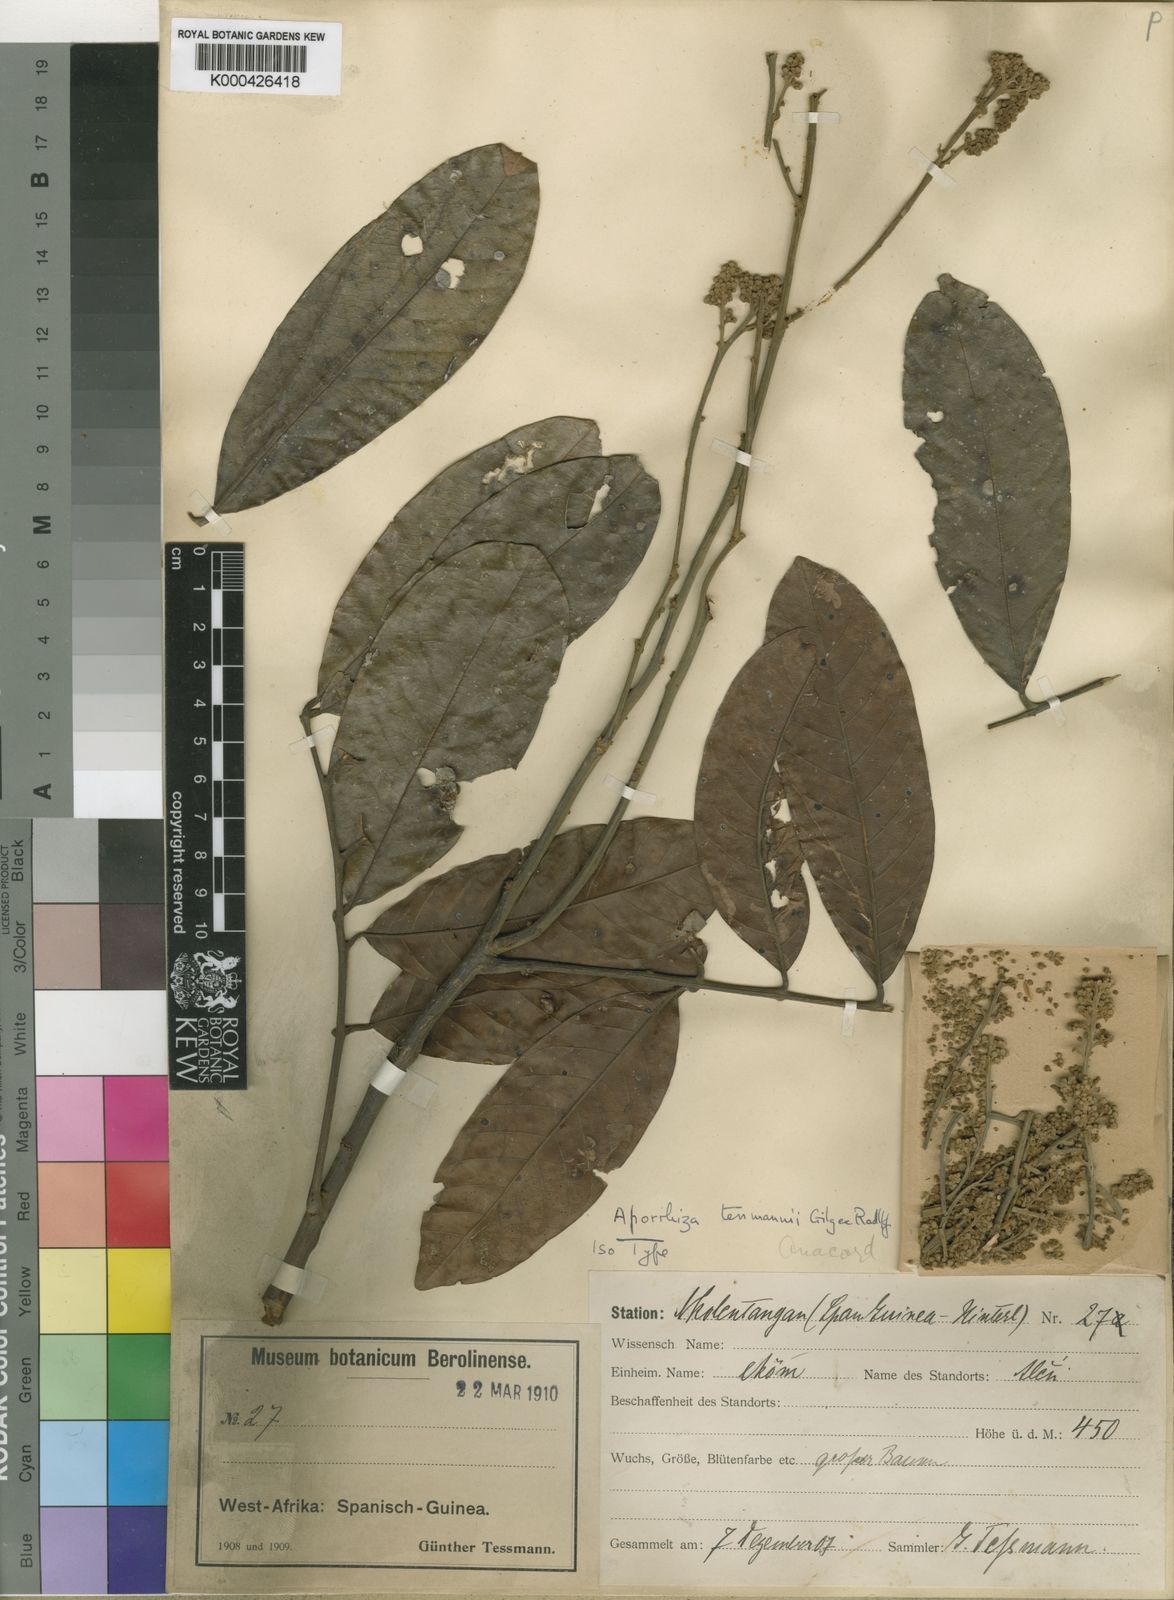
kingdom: Plantae
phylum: Tracheophyta
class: Magnoliopsida
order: Sapindales
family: Sapindaceae
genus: Aporrhiza
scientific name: Aporrhiza tessmannii
